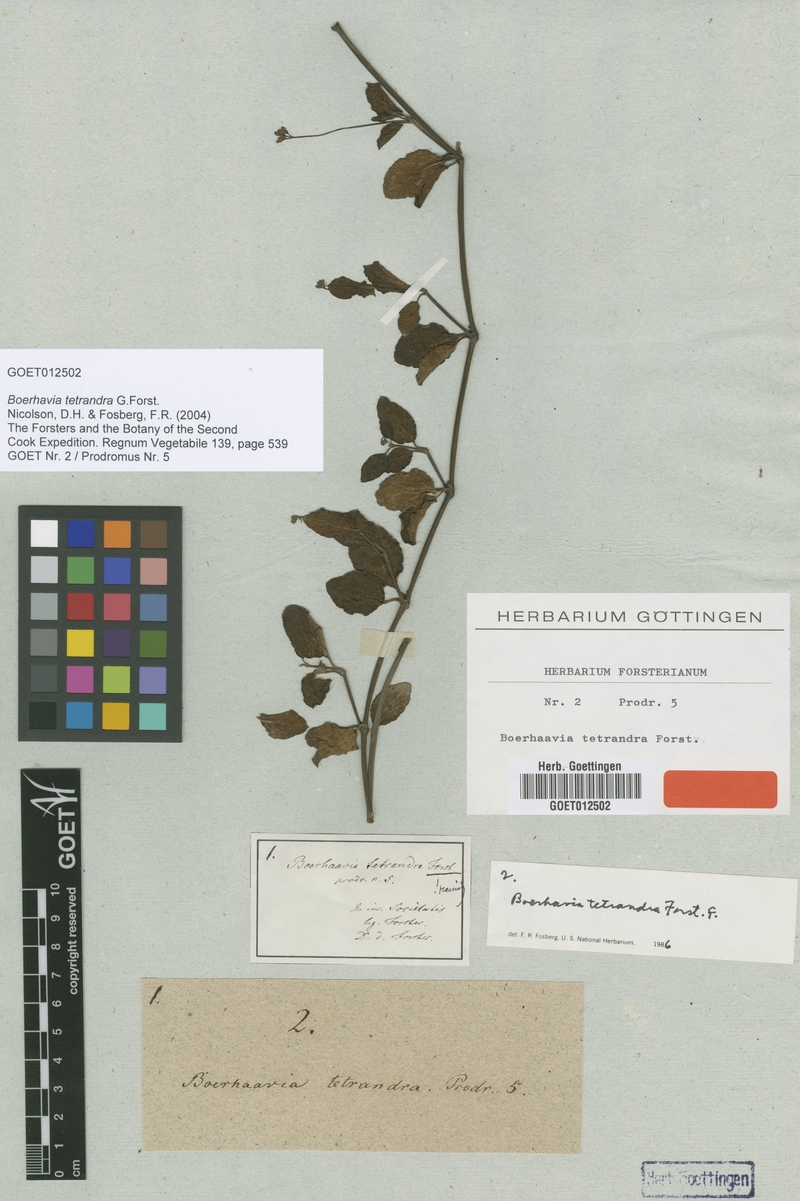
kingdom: Plantae
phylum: Tracheophyta
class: Magnoliopsida
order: Caryophyllales
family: Nyctaginaceae
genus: Boerhavia
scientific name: Boerhavia tetrandra
